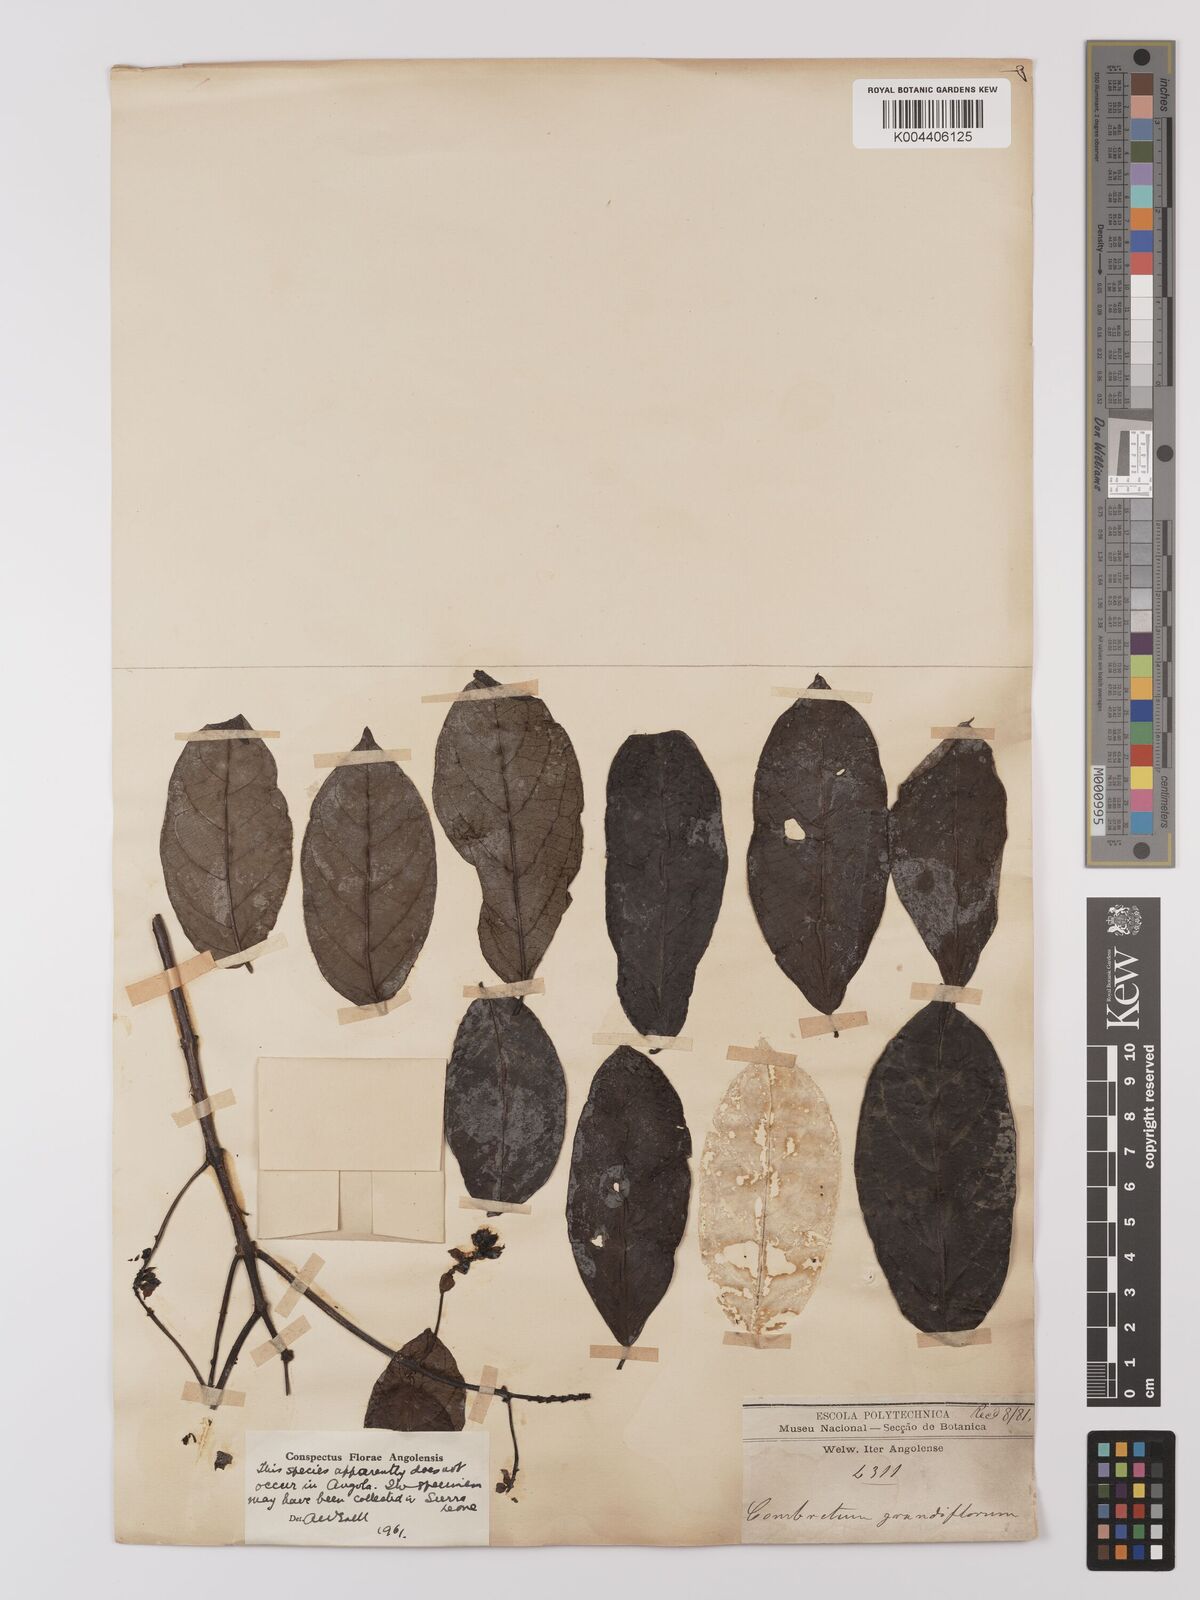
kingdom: Plantae
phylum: Tracheophyta
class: Magnoliopsida
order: Myrtales
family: Combretaceae
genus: Combretum
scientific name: Combretum grandiflorum
